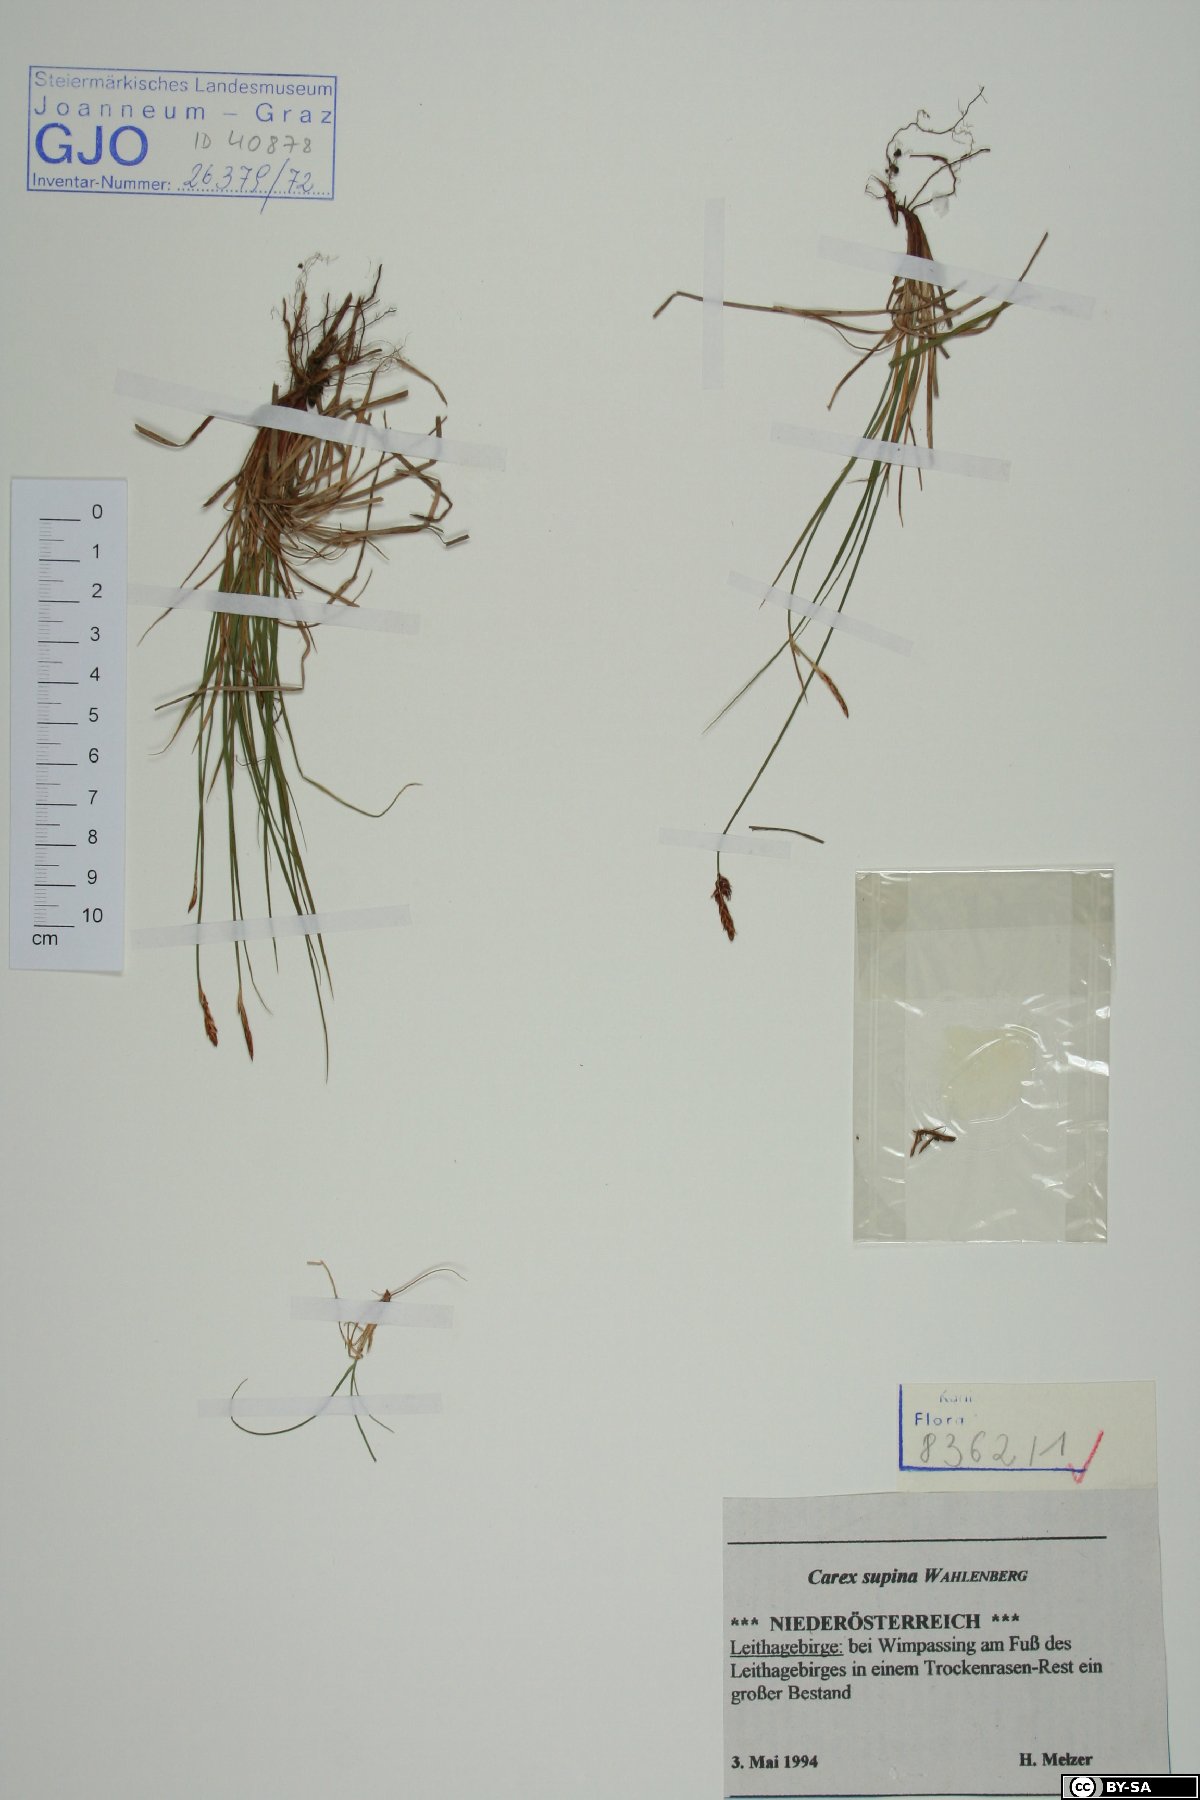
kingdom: Plantae
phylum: Tracheophyta
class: Liliopsida
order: Poales
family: Cyperaceae
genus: Carex
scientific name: Carex supina
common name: Lying-back sedge
